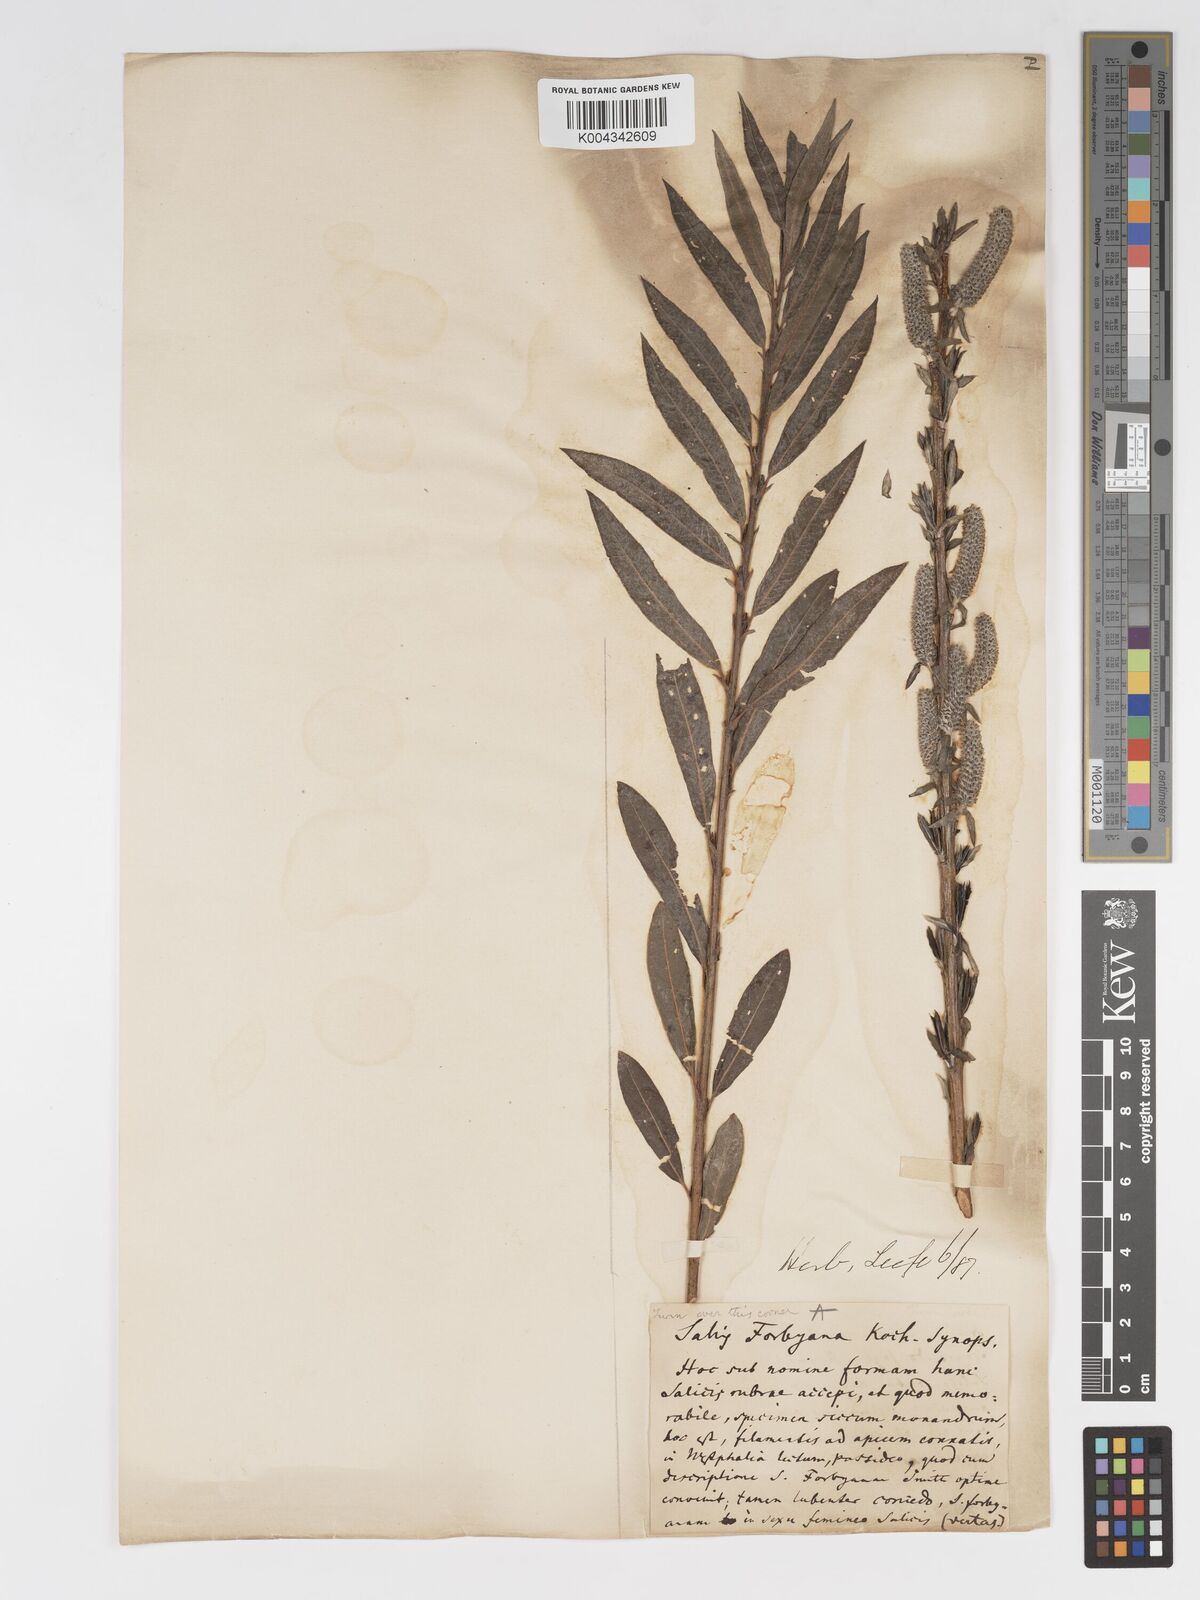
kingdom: Plantae
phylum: Tracheophyta
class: Magnoliopsida
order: Malpighiales
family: Salicaceae
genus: Salix
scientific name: Salix cinerea
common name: Common sallow
